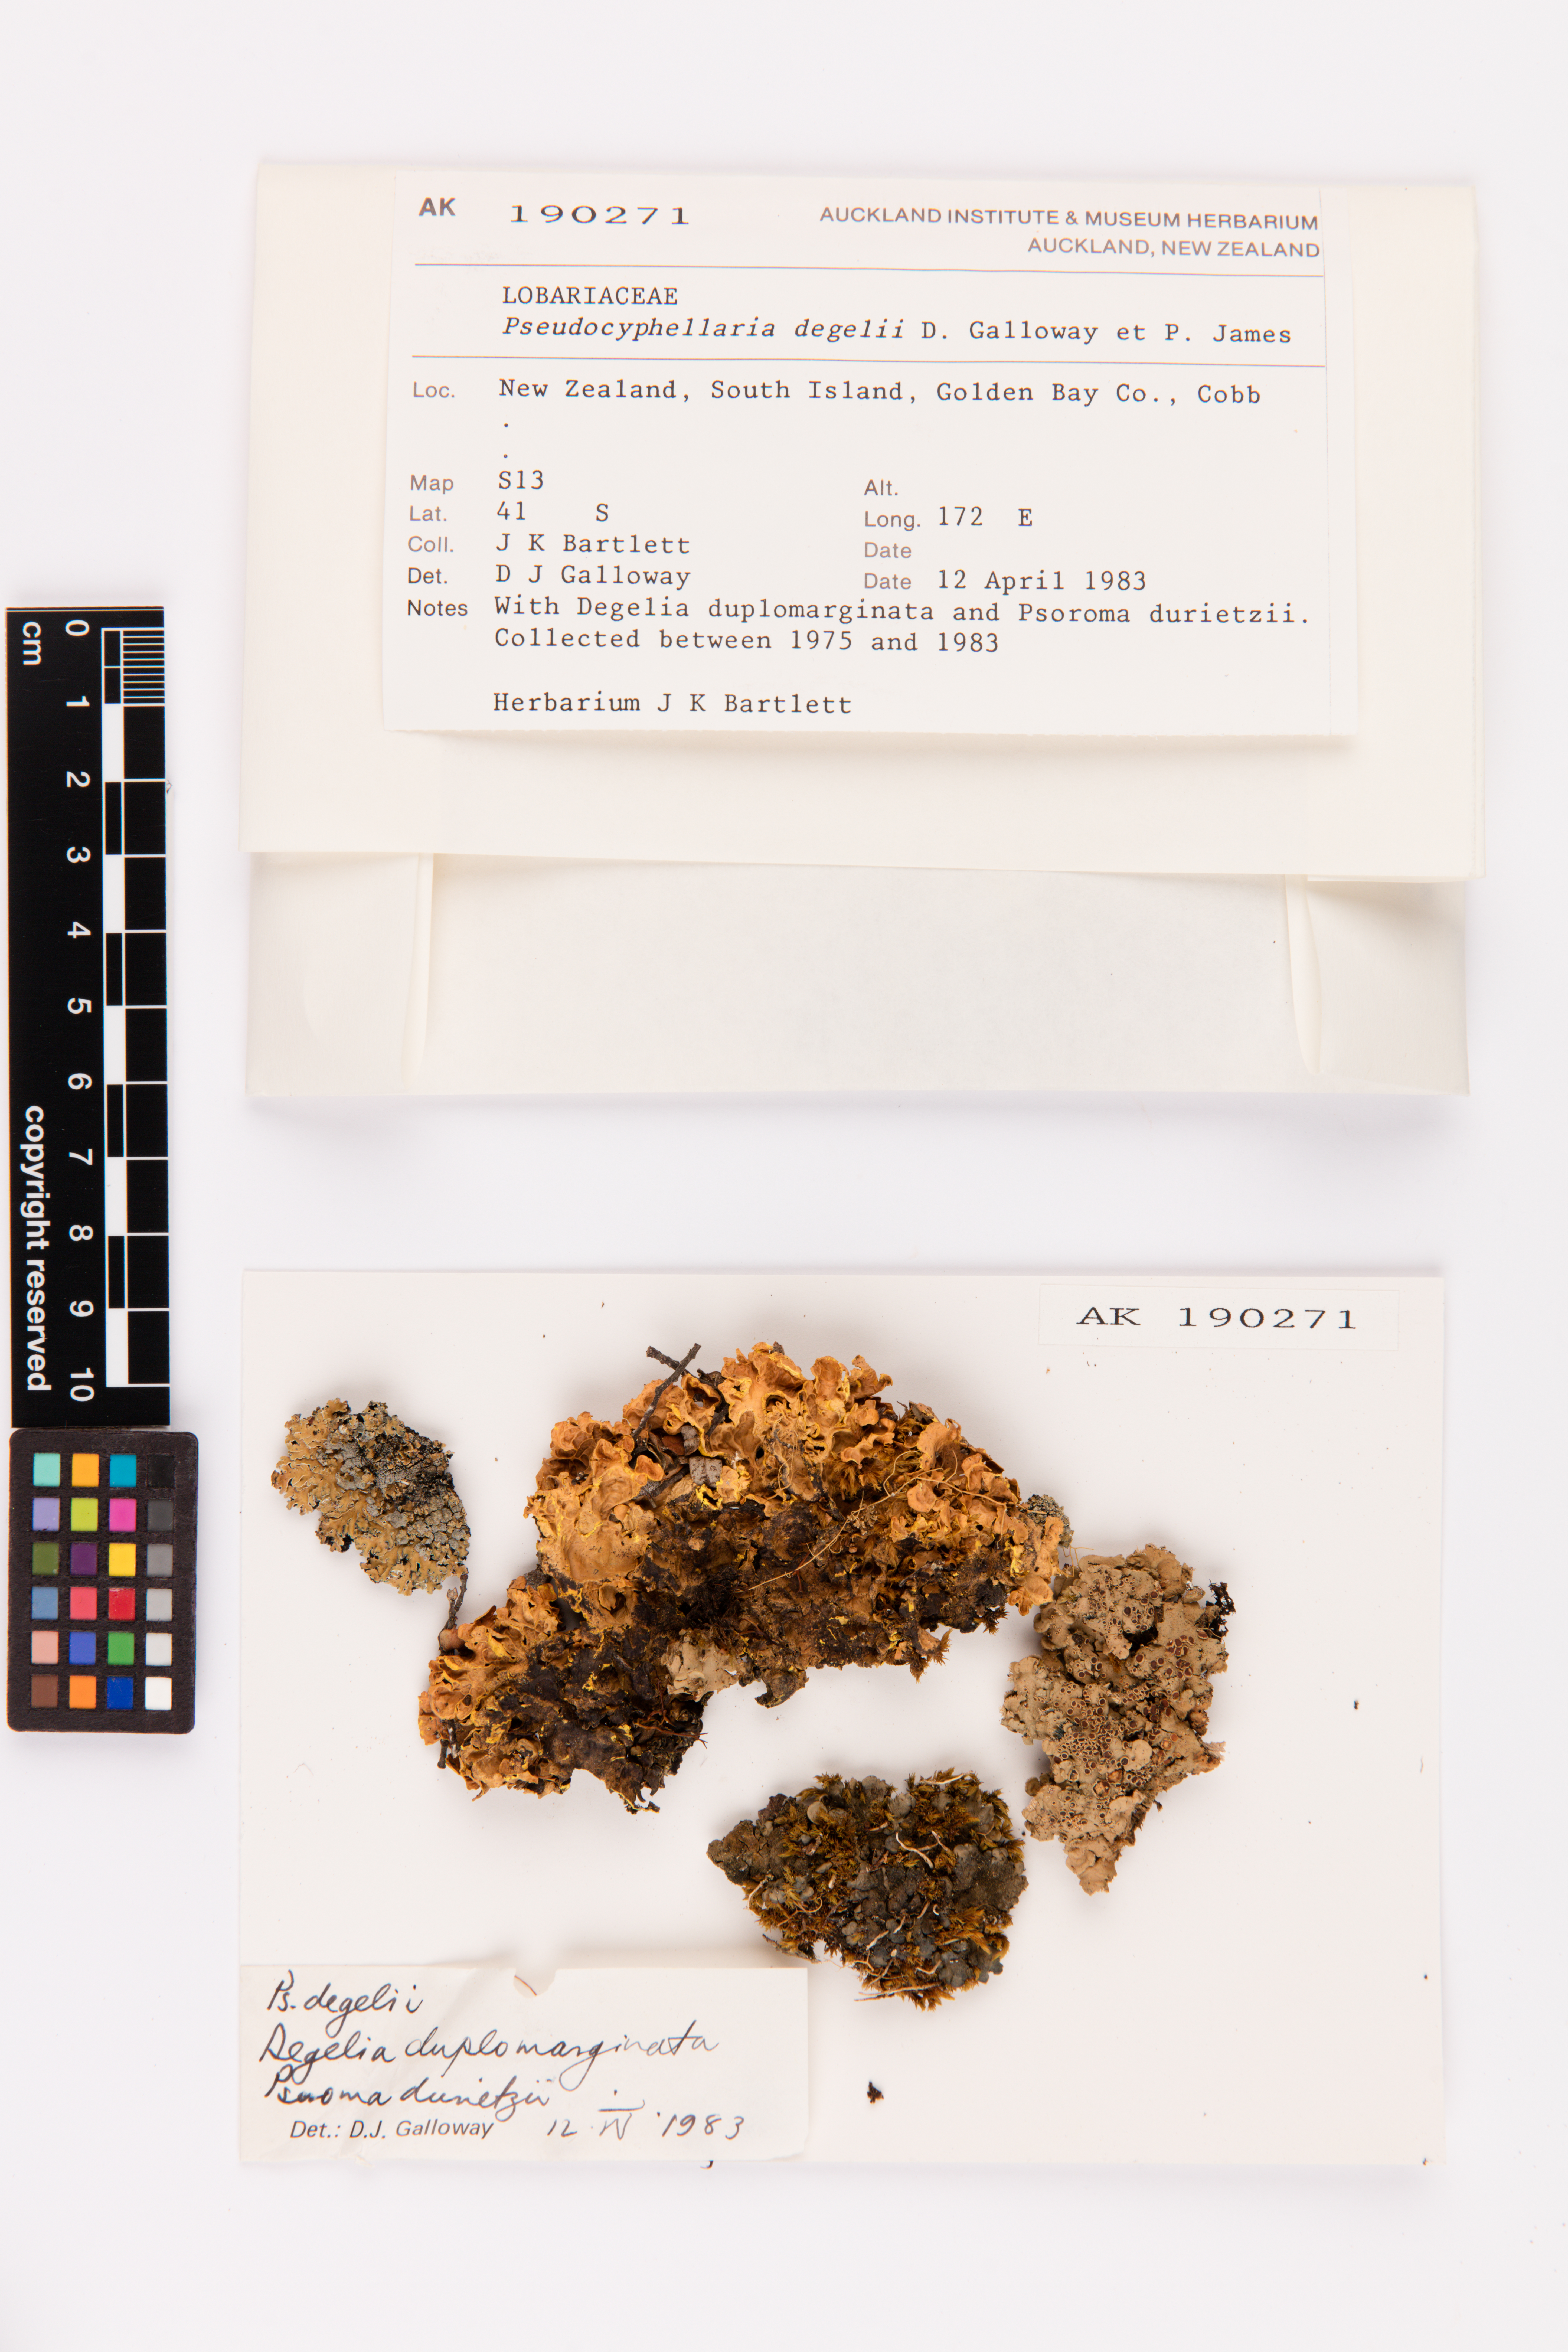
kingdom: Fungi
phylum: Ascomycota
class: Lecanoromycetes
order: Peltigerales
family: Lobariaceae
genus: Podostictina
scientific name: Podostictina degelii
